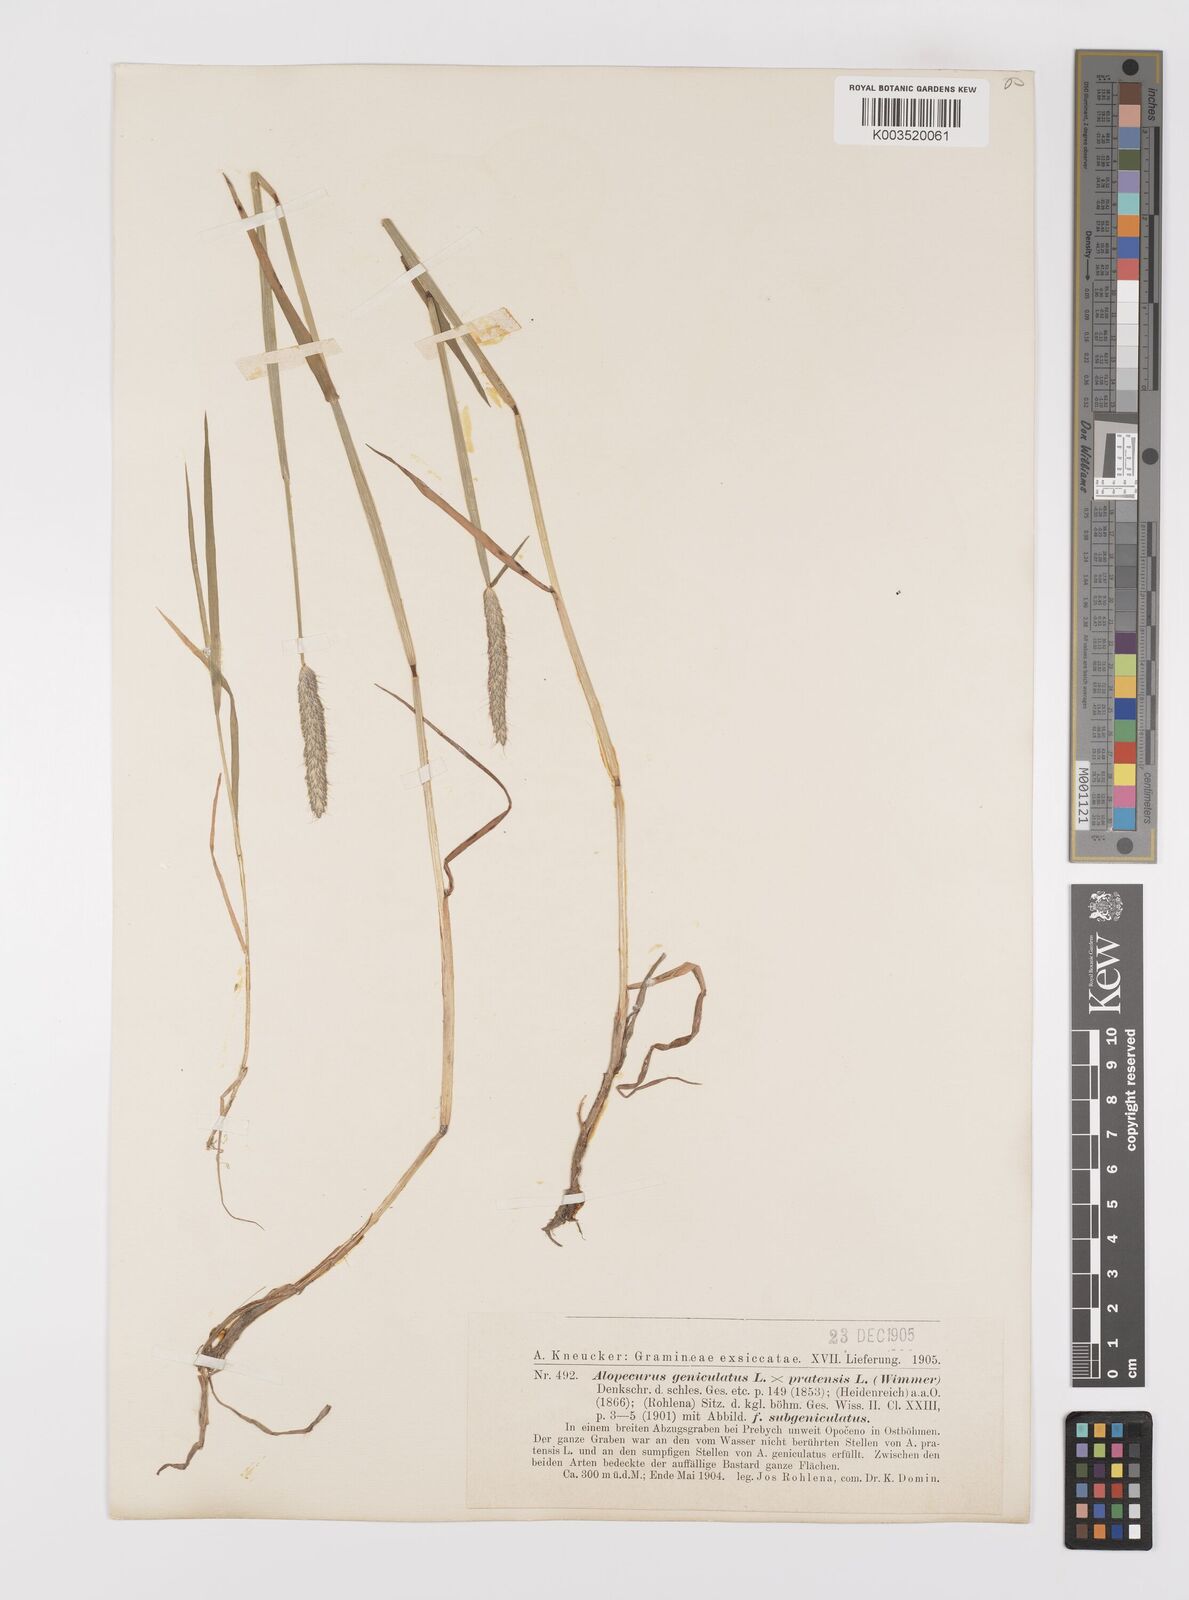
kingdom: Plantae
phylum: Tracheophyta
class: Liliopsida
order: Poales
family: Poaceae
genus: Alopecurus
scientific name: Alopecurus brachystylus
